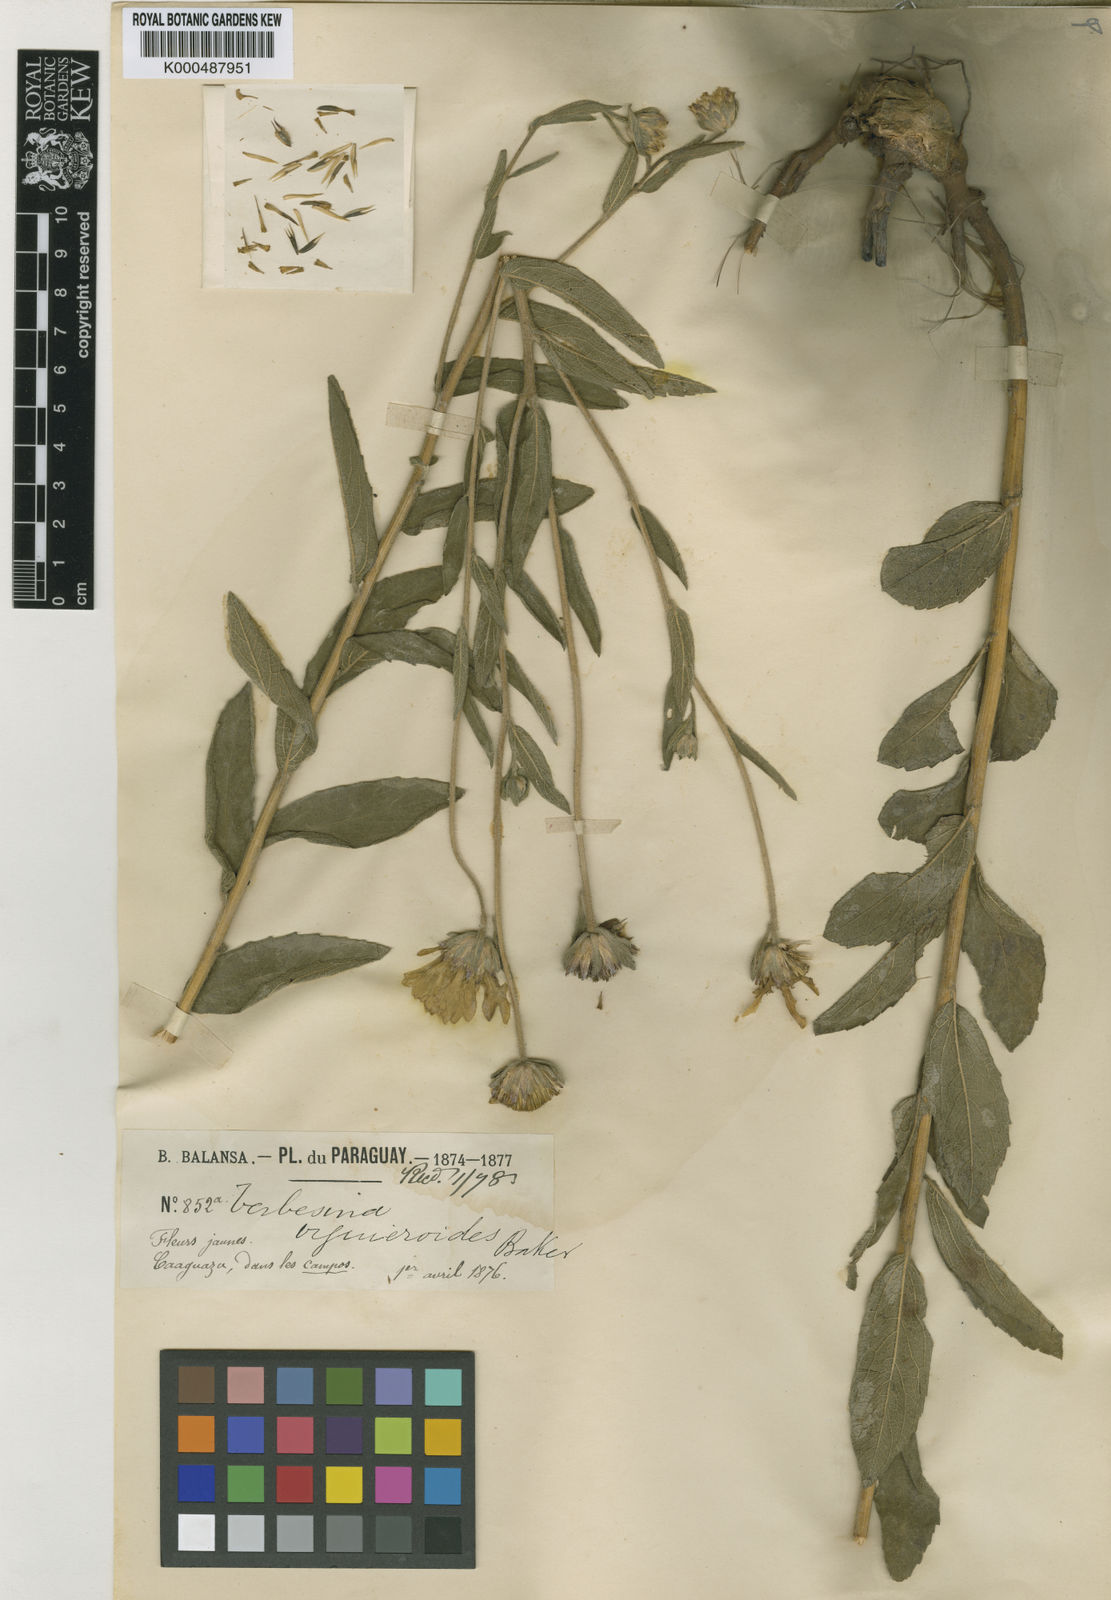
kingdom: Plantae
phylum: Tracheophyta
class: Magnoliopsida
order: Asterales
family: Asteraceae
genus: Dimerostemma
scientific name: Dimerostemma arnottii
